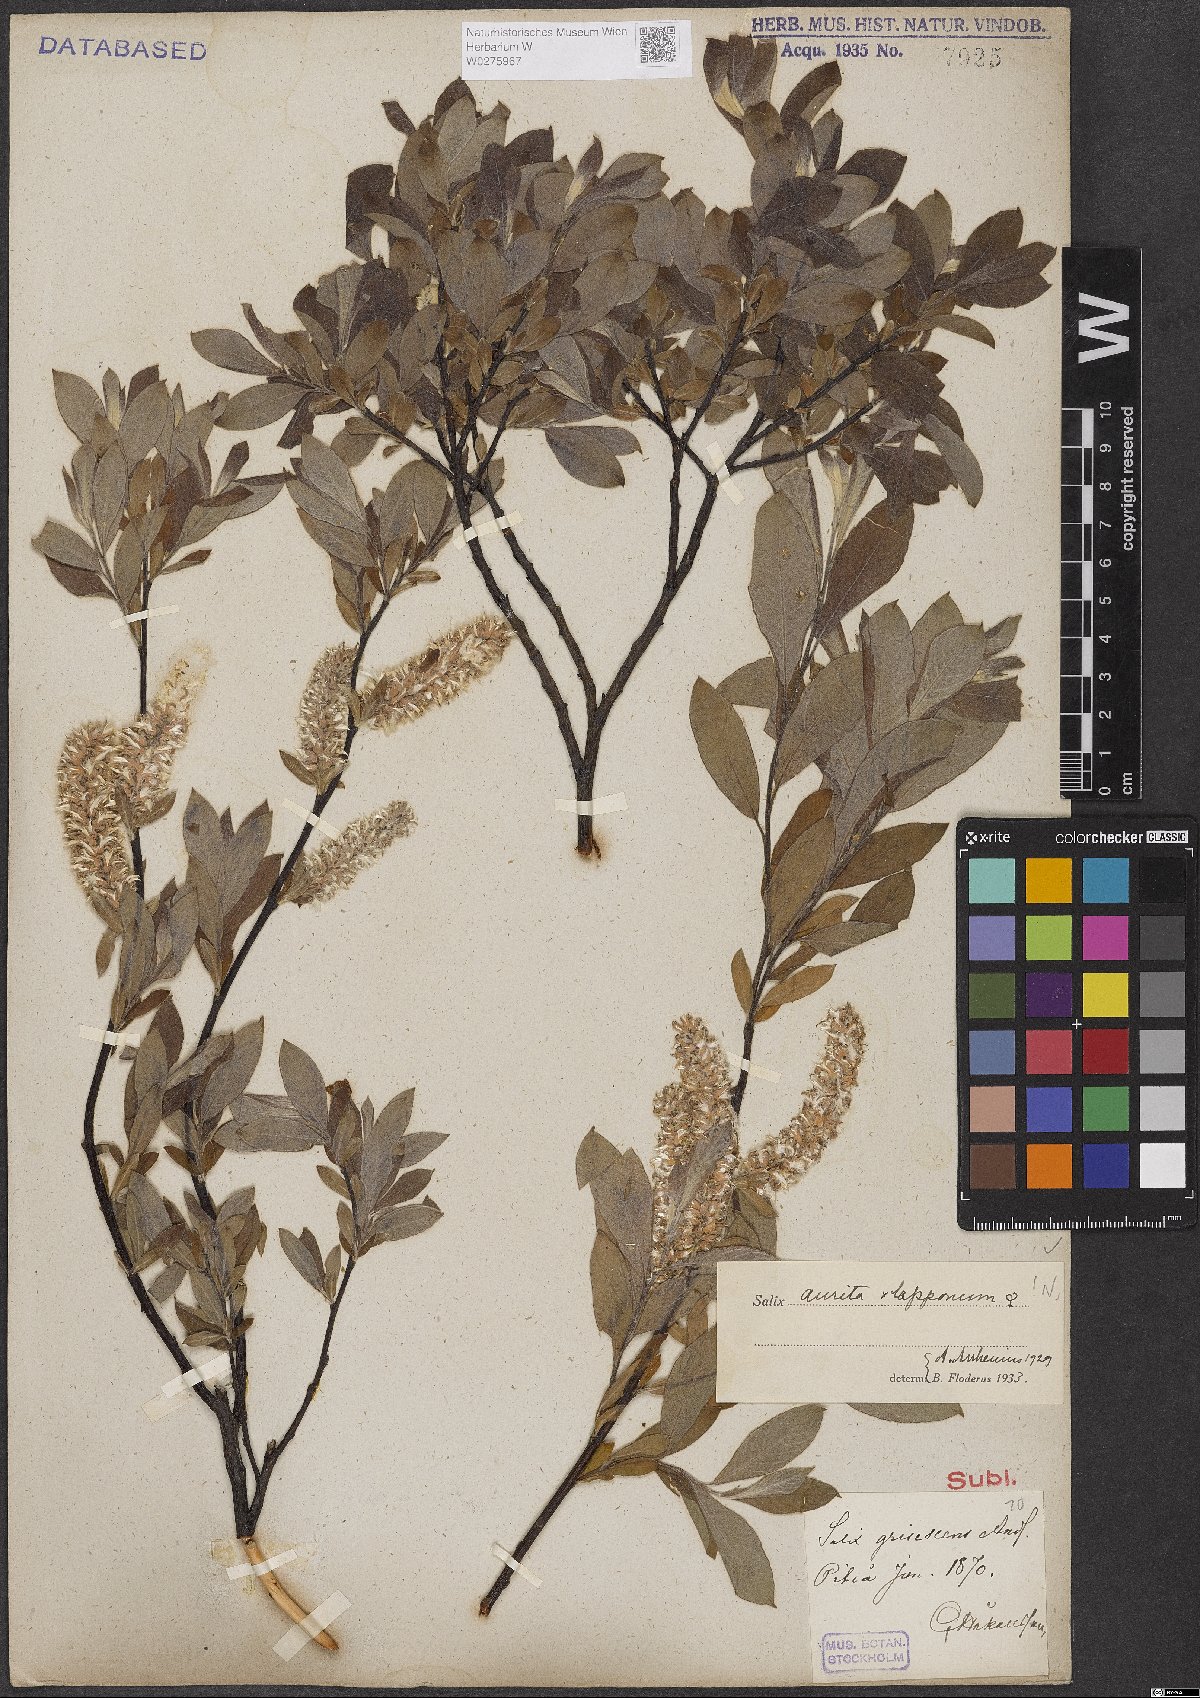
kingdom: Plantae
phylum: Tracheophyta
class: Magnoliopsida
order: Malpighiales
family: Salicaceae
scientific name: Salicaceae
